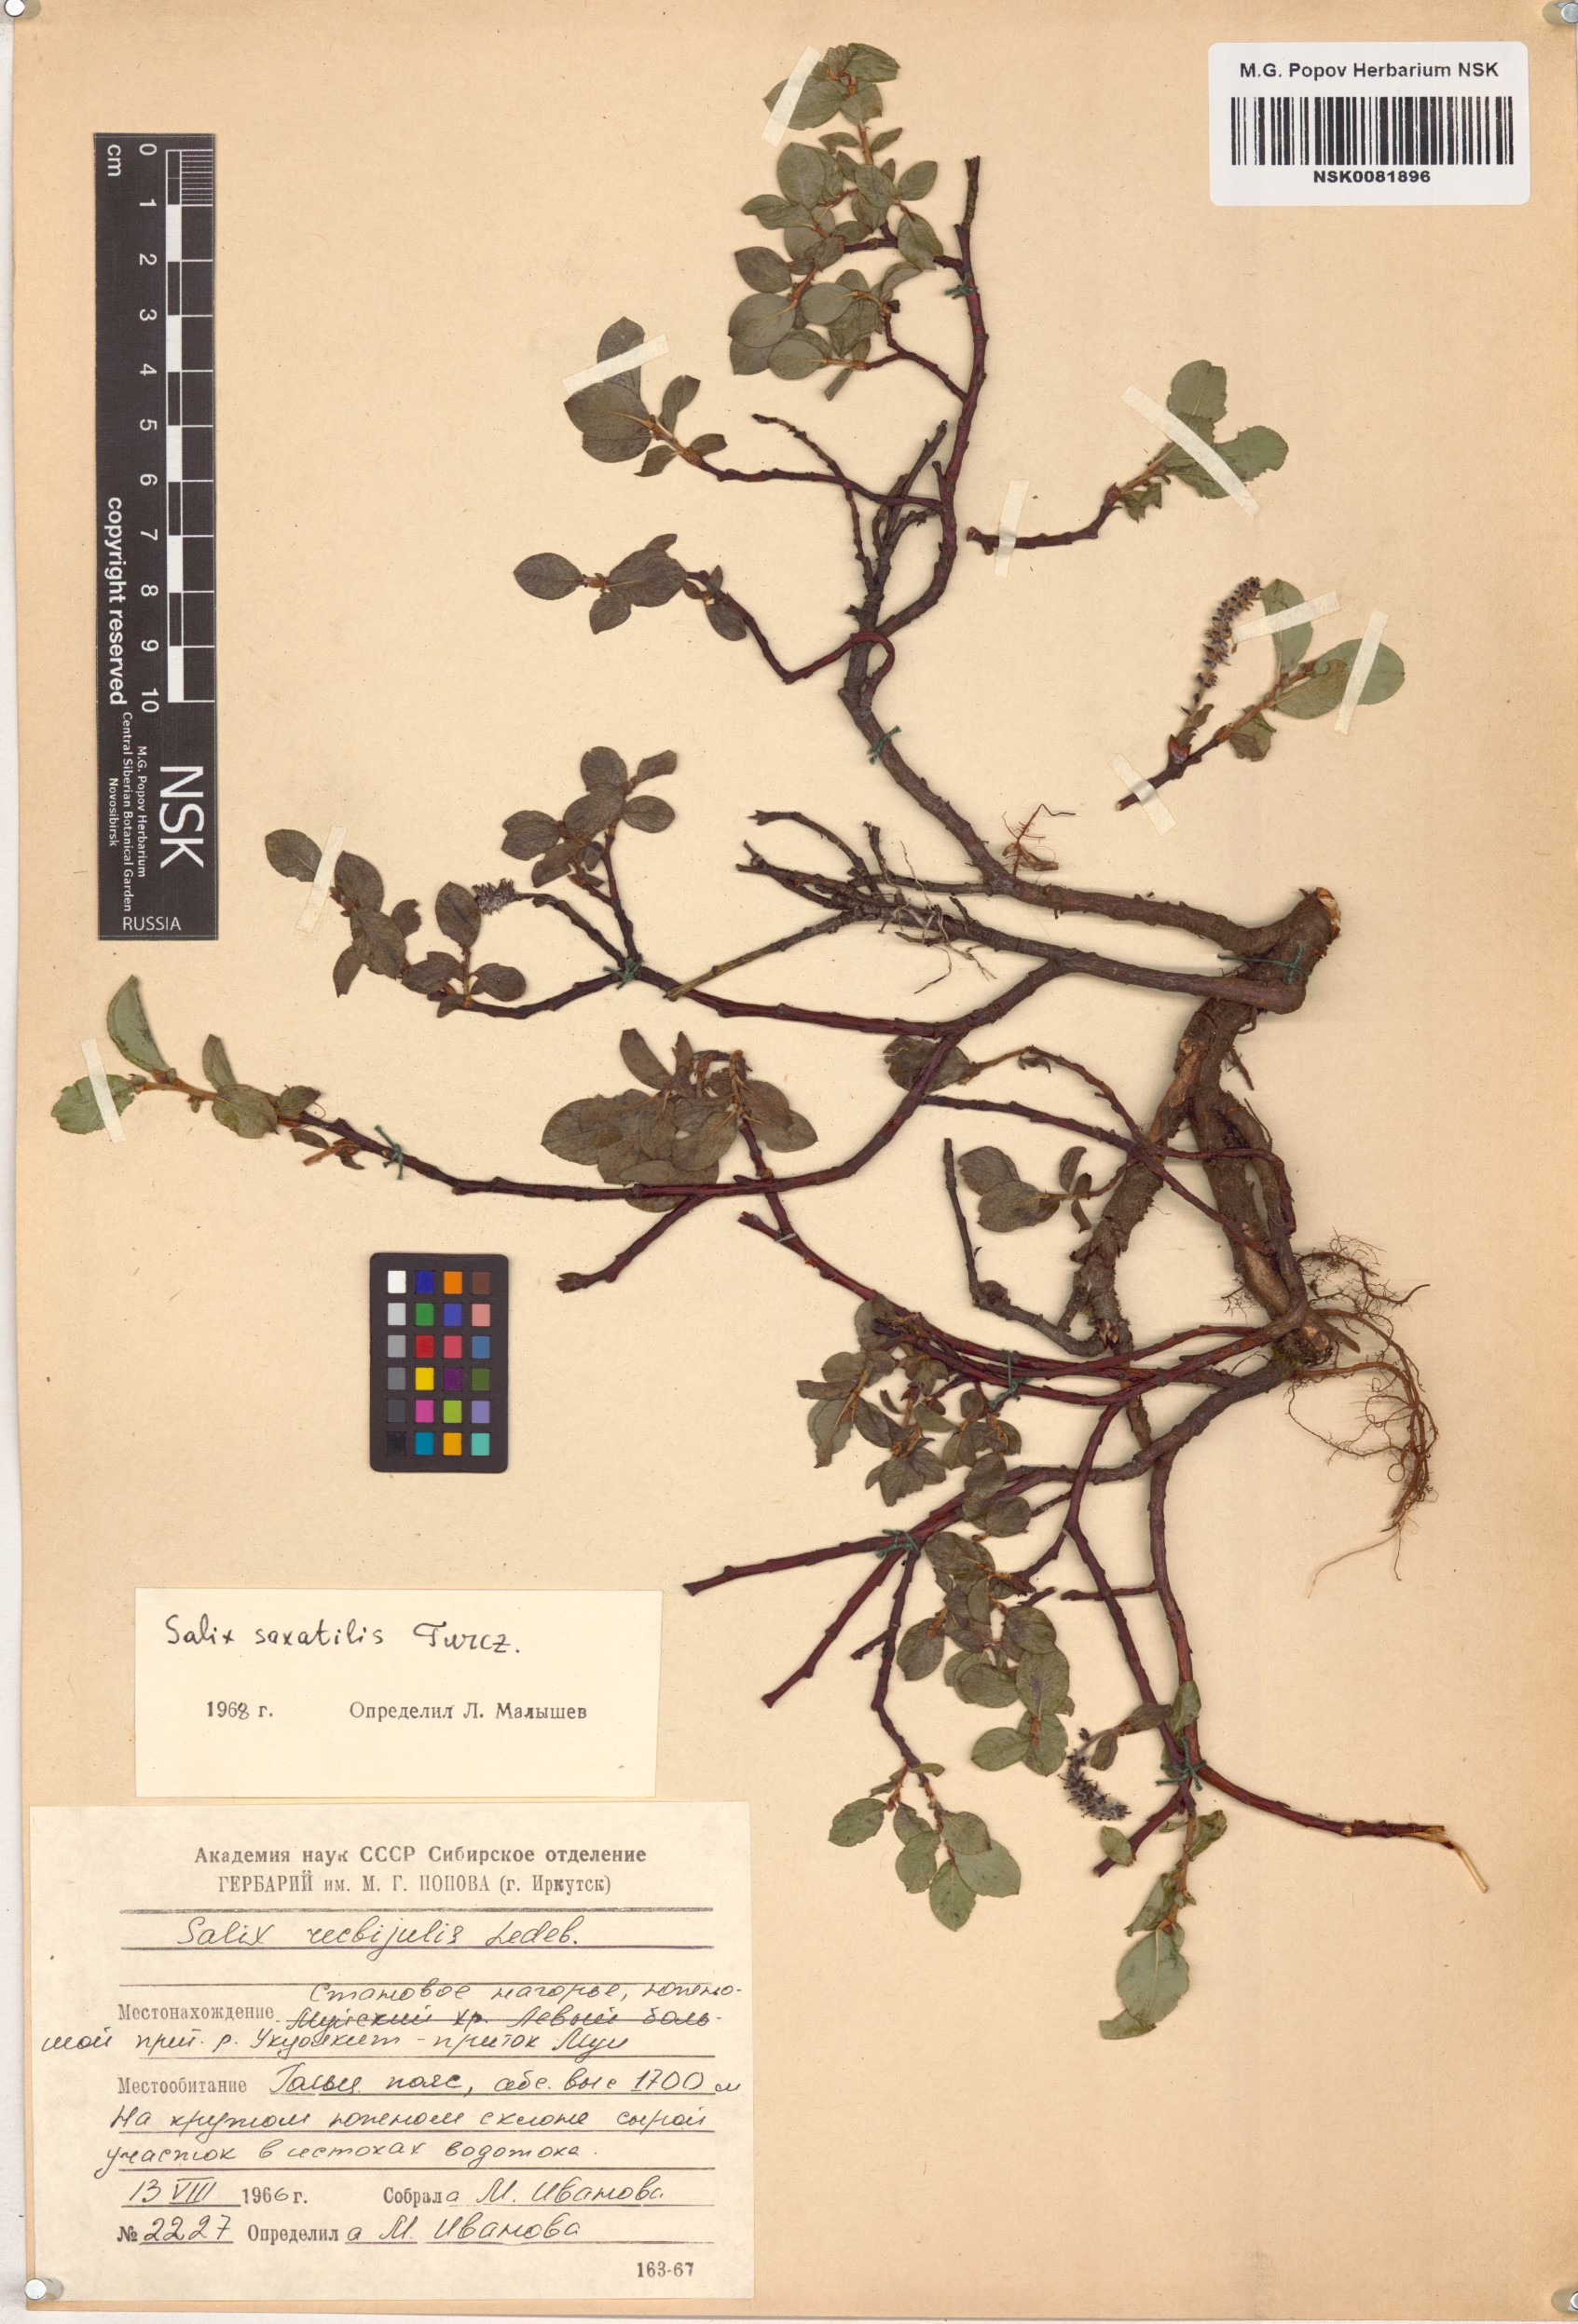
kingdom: Plantae
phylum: Tracheophyta
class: Magnoliopsida
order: Malpighiales
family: Salicaceae
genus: Salix
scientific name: Salix saxatilis
